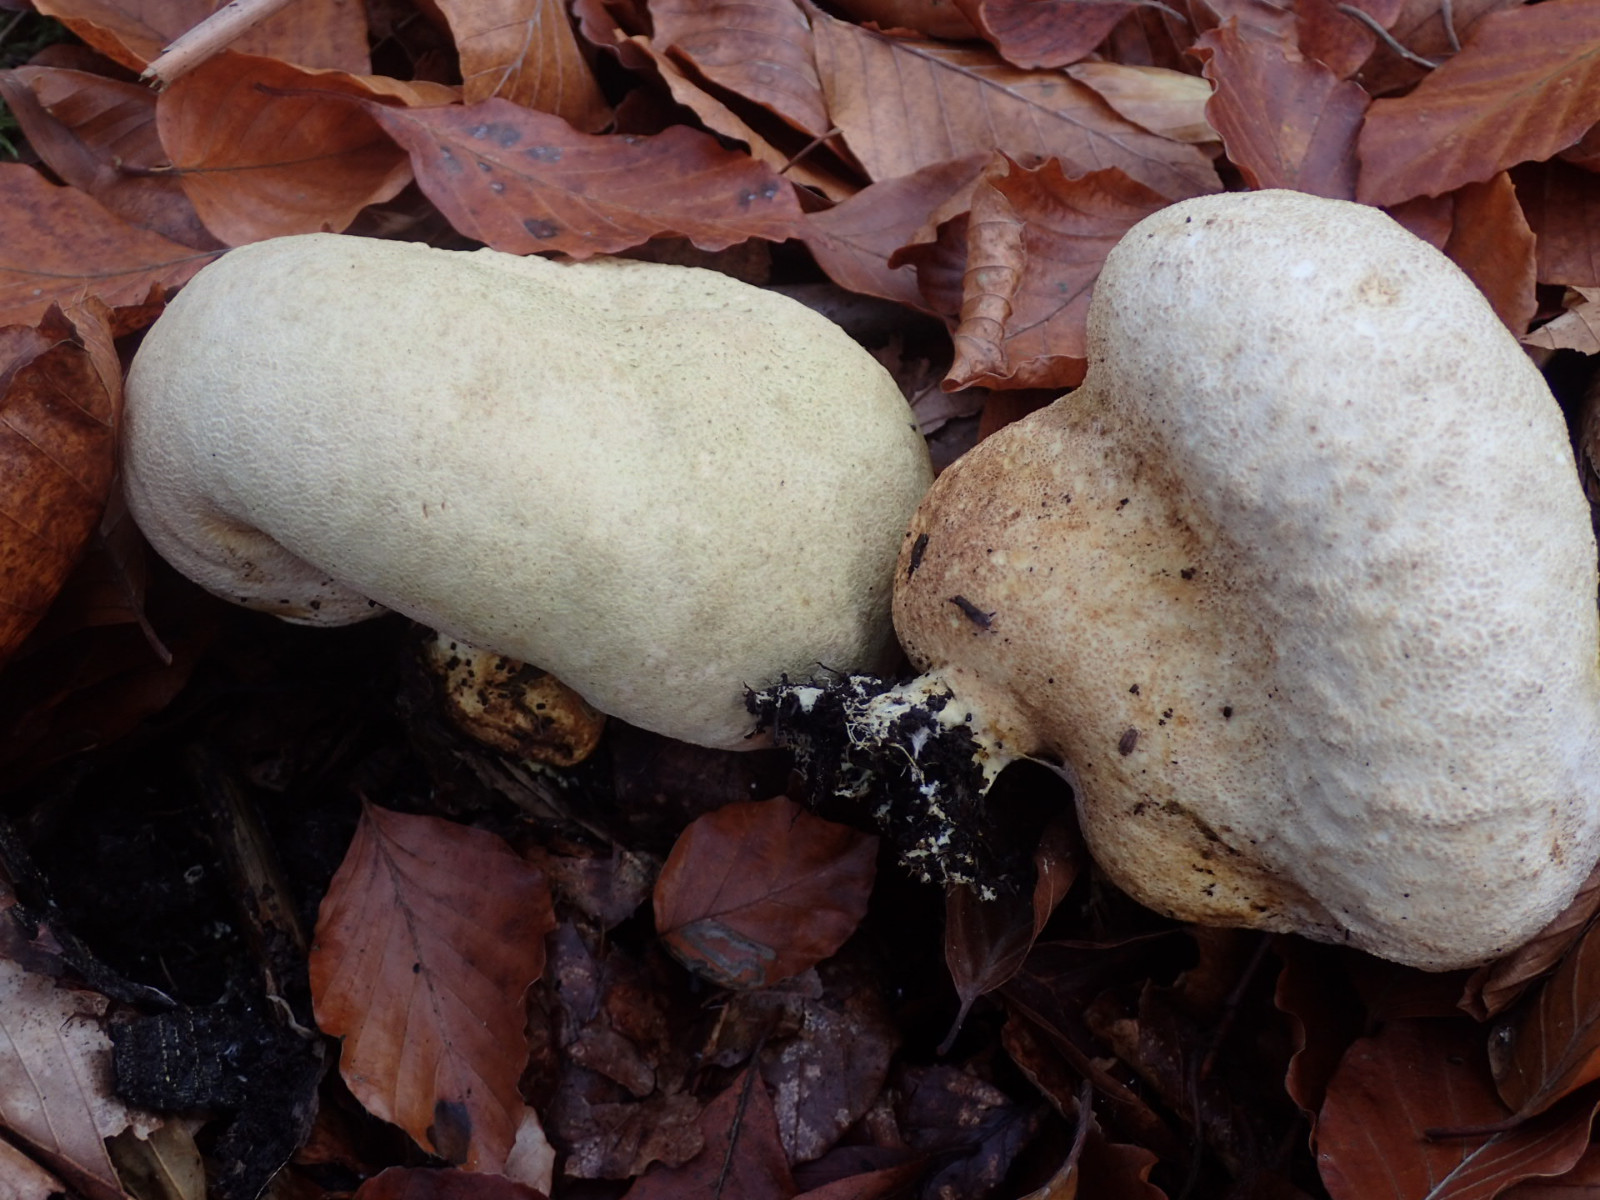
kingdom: Fungi
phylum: Basidiomycota
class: Agaricomycetes
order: Boletales
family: Sclerodermataceae
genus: Scleroderma
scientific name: Scleroderma citrinum
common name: almindelig bruskbold
